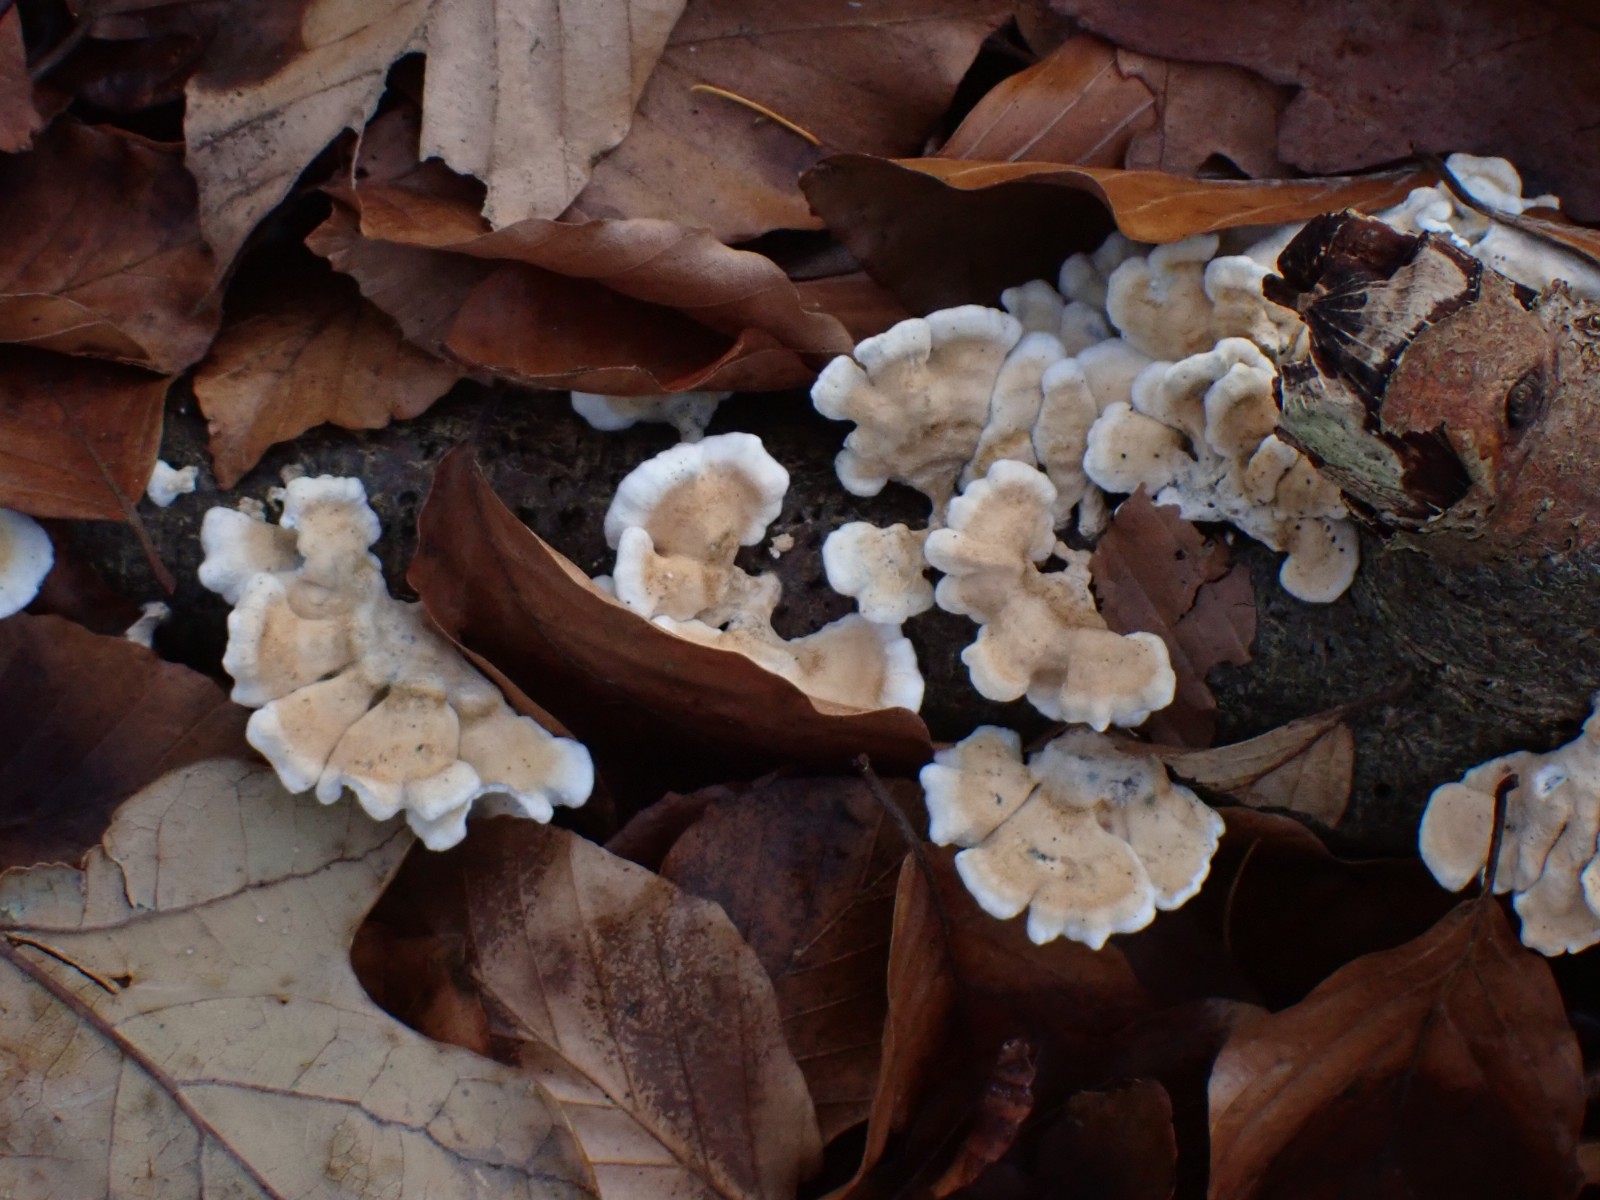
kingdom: Fungi
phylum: Basidiomycota
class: Agaricomycetes
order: Amylocorticiales
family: Amylocorticiaceae
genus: Plicaturopsis
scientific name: Plicaturopsis crispa
